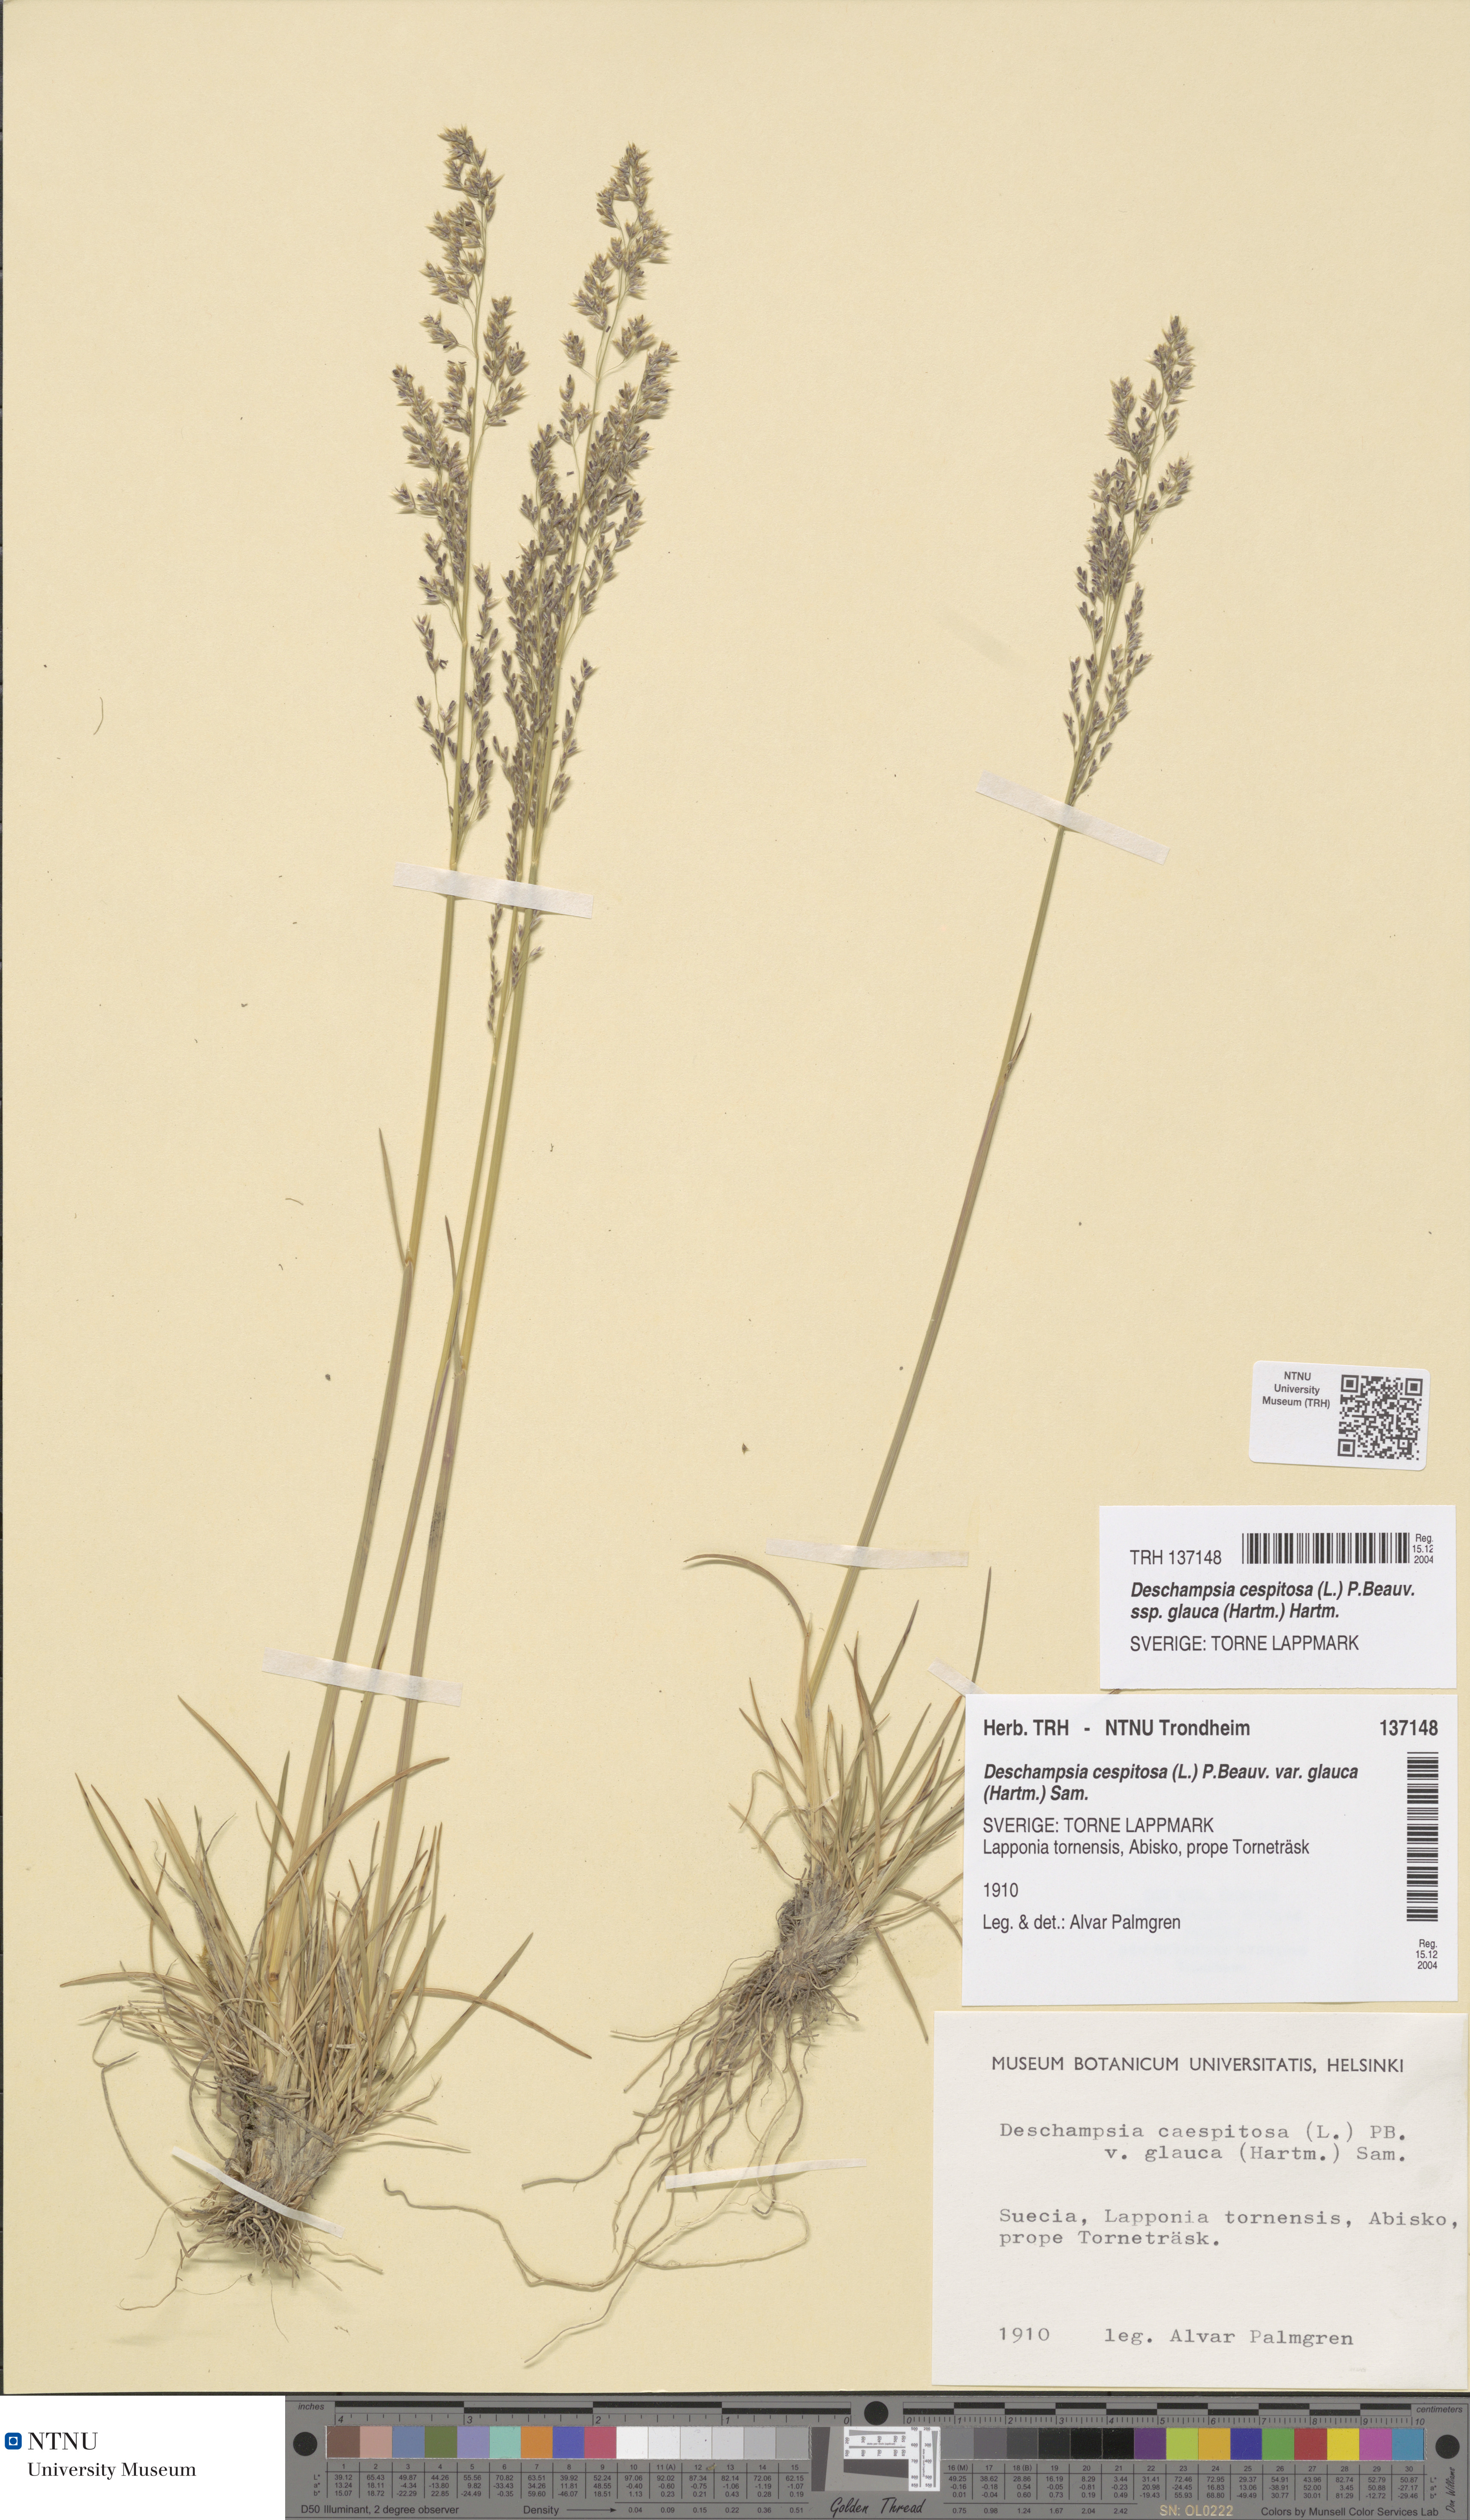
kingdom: Plantae
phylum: Tracheophyta
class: Liliopsida
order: Poales
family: Poaceae
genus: Deschampsia
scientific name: Deschampsia cespitosa
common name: Tufted hair-grass
